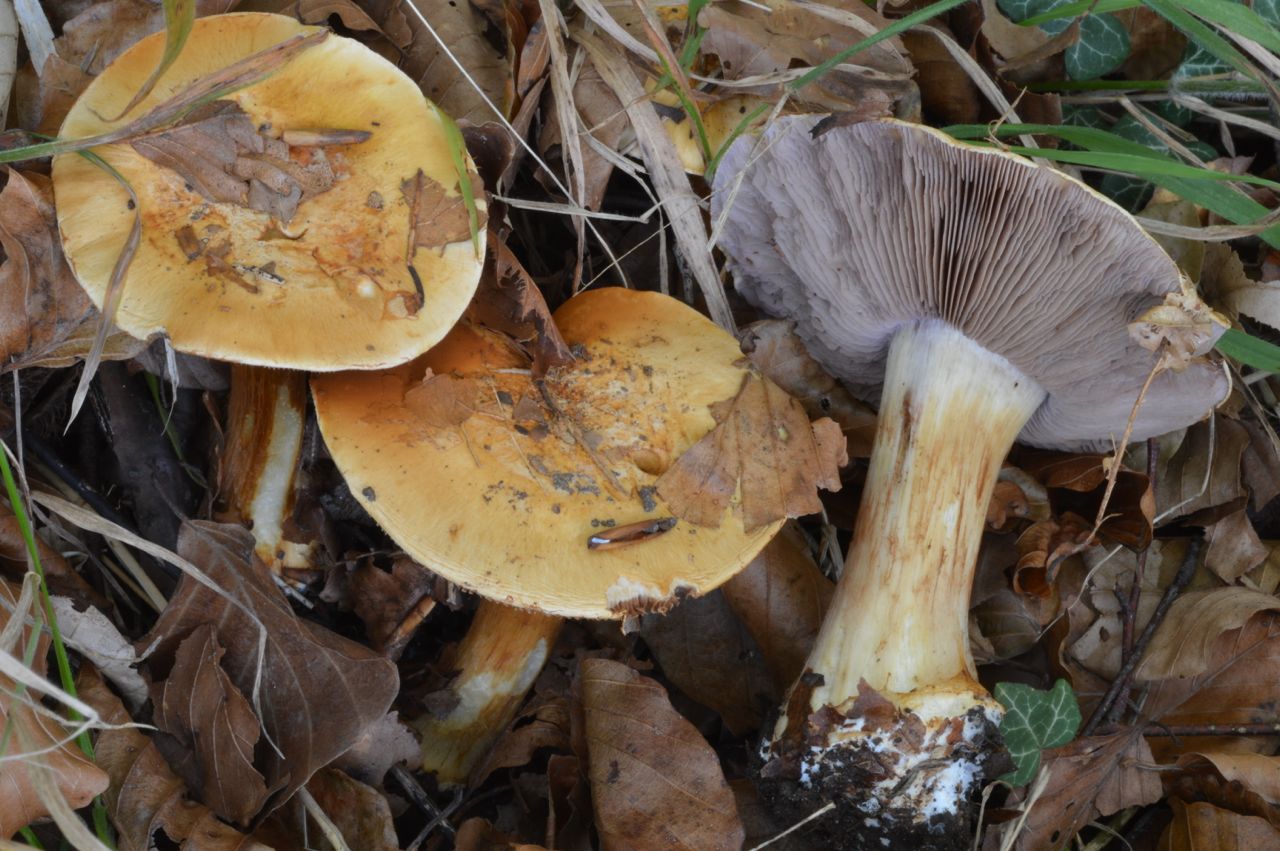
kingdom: Fungi
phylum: Basidiomycota
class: Agaricomycetes
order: Agaricales
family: Cortinariaceae
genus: Calonarius
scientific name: Calonarius cisticola
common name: cistus-slørhat
